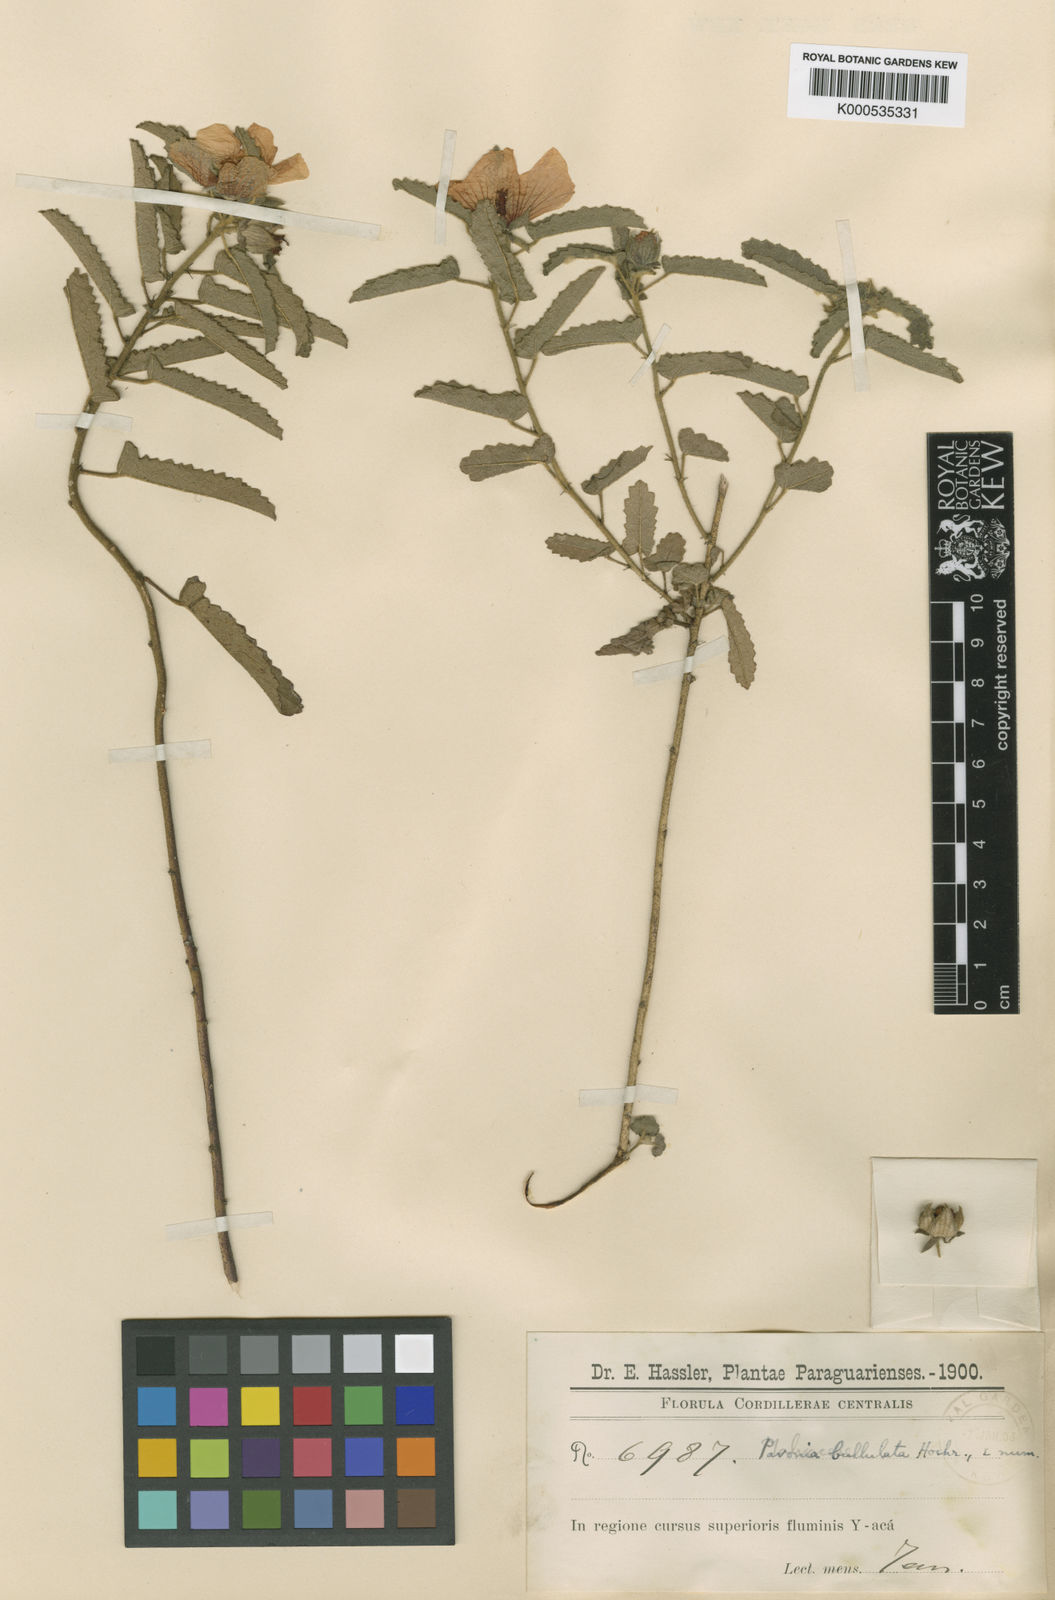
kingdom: Plantae
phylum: Tracheophyta
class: Magnoliopsida
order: Malvales
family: Malvaceae
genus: Pavonia
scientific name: Pavonia
